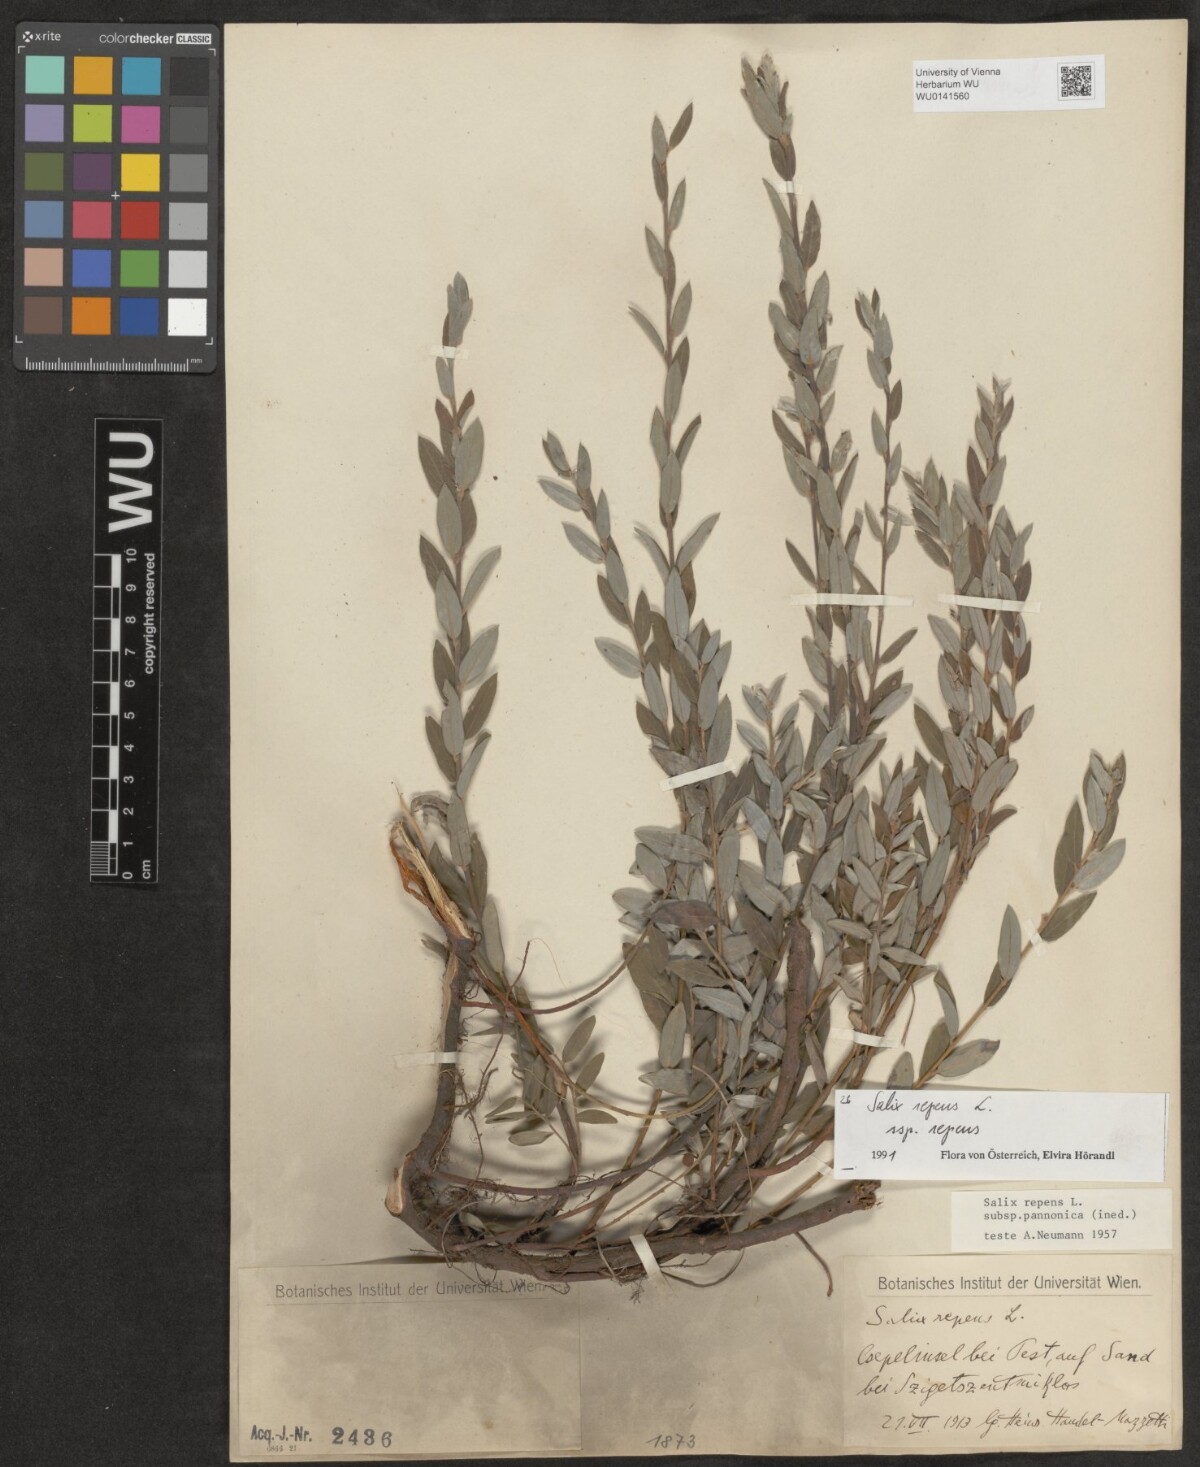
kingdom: Plantae
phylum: Tracheophyta
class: Magnoliopsida
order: Malpighiales
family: Salicaceae
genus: Salix
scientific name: Salix repens
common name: Creeping willow
